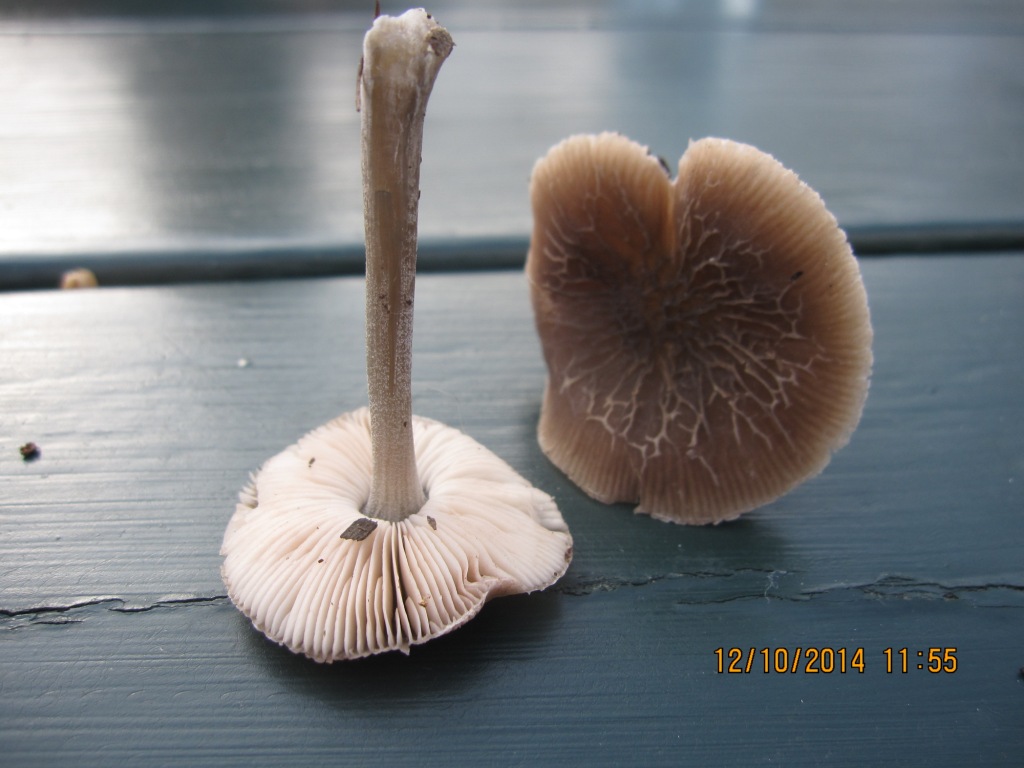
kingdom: Fungi
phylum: Basidiomycota
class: Agaricomycetes
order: Agaricales
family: Pluteaceae
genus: Pluteus
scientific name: Pluteus
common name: gråstokket skærmhat
